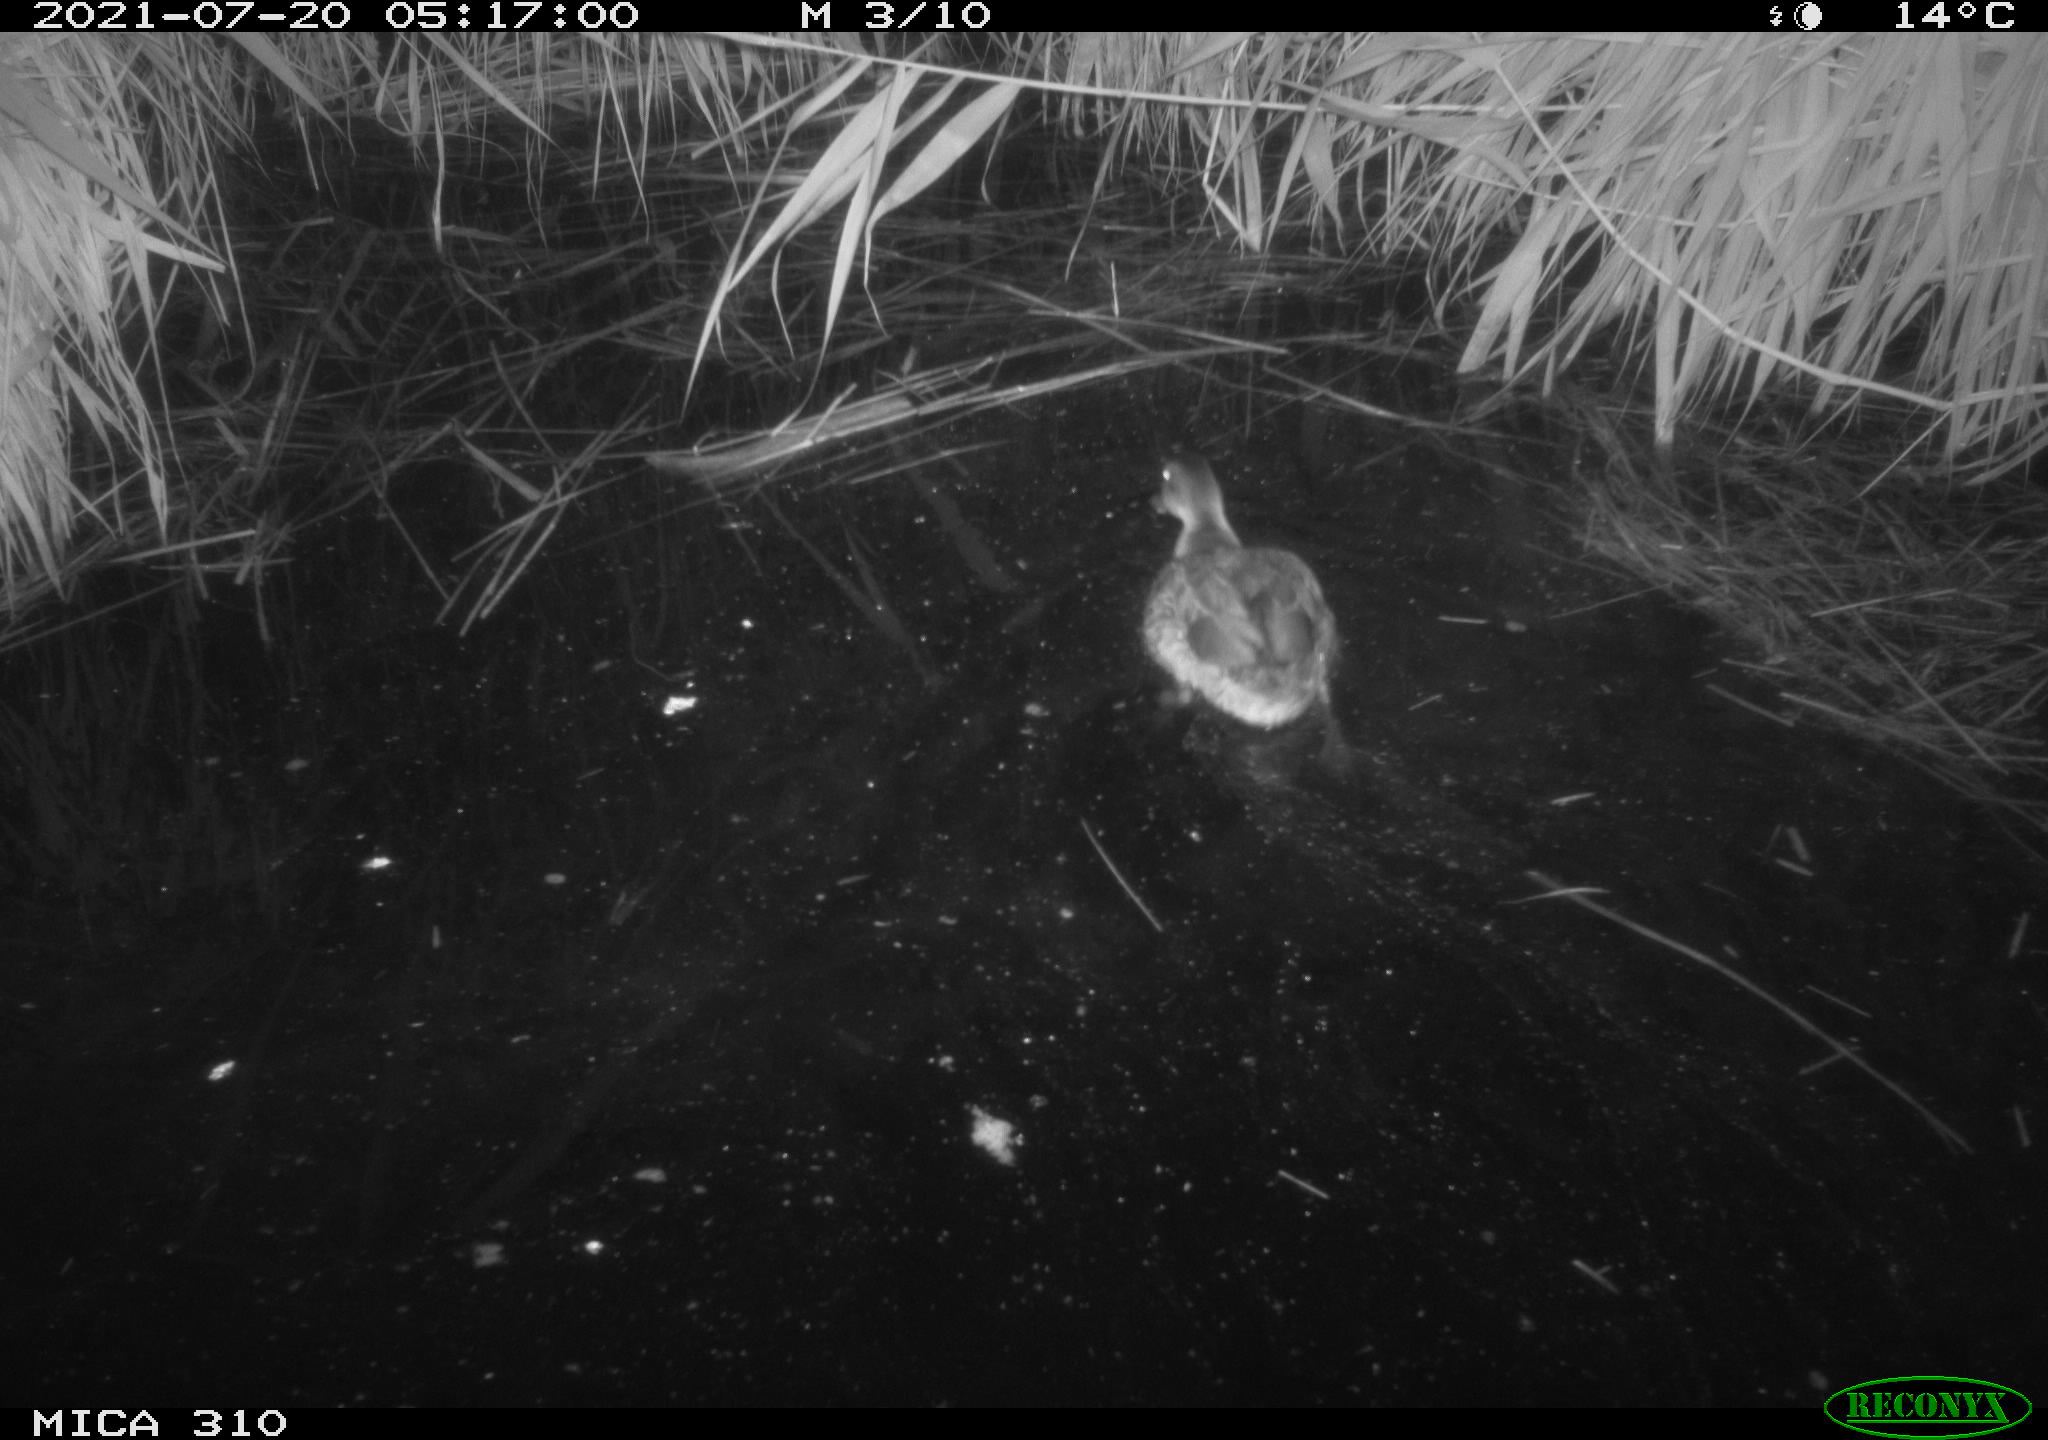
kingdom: Animalia
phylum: Chordata
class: Aves
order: Pelecaniformes
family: Ardeidae
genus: Ardea
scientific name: Ardea
